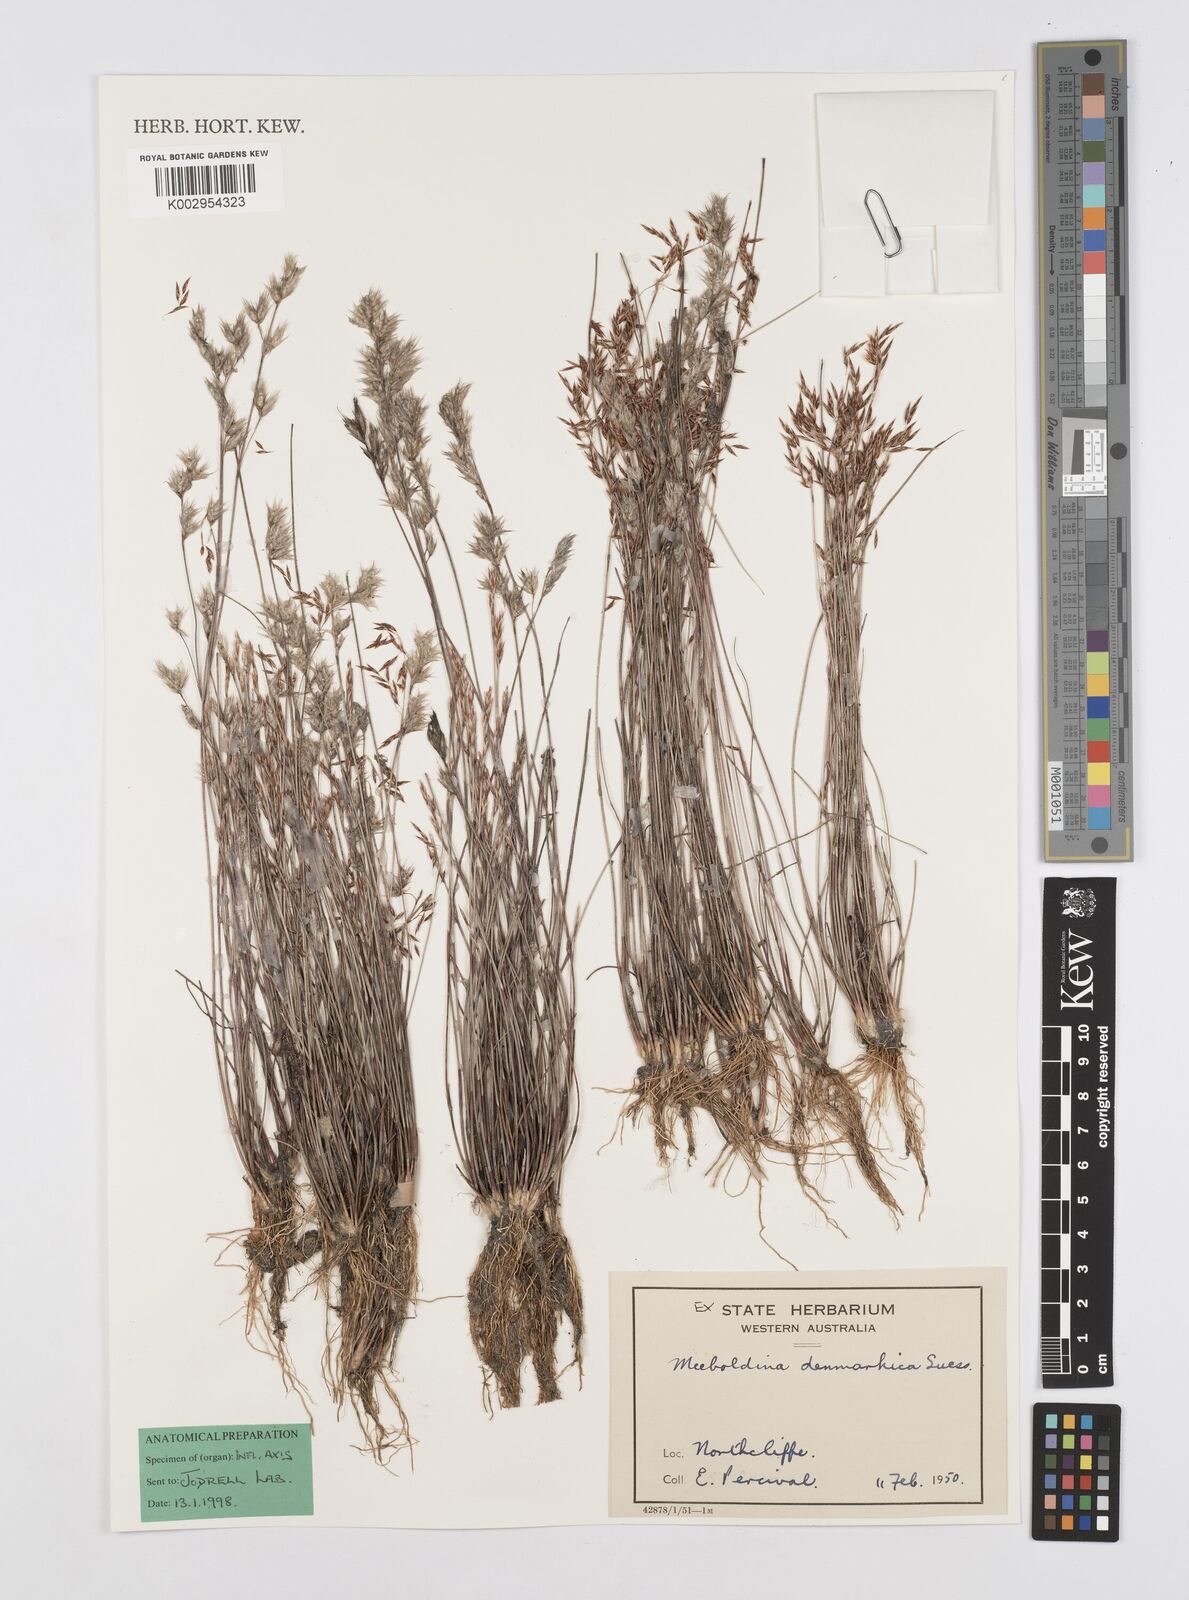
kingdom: Plantae
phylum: Tracheophyta
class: Liliopsida
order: Poales
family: Restionaceae
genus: Leptocarpus
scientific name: Leptocarpus denmarkicus
